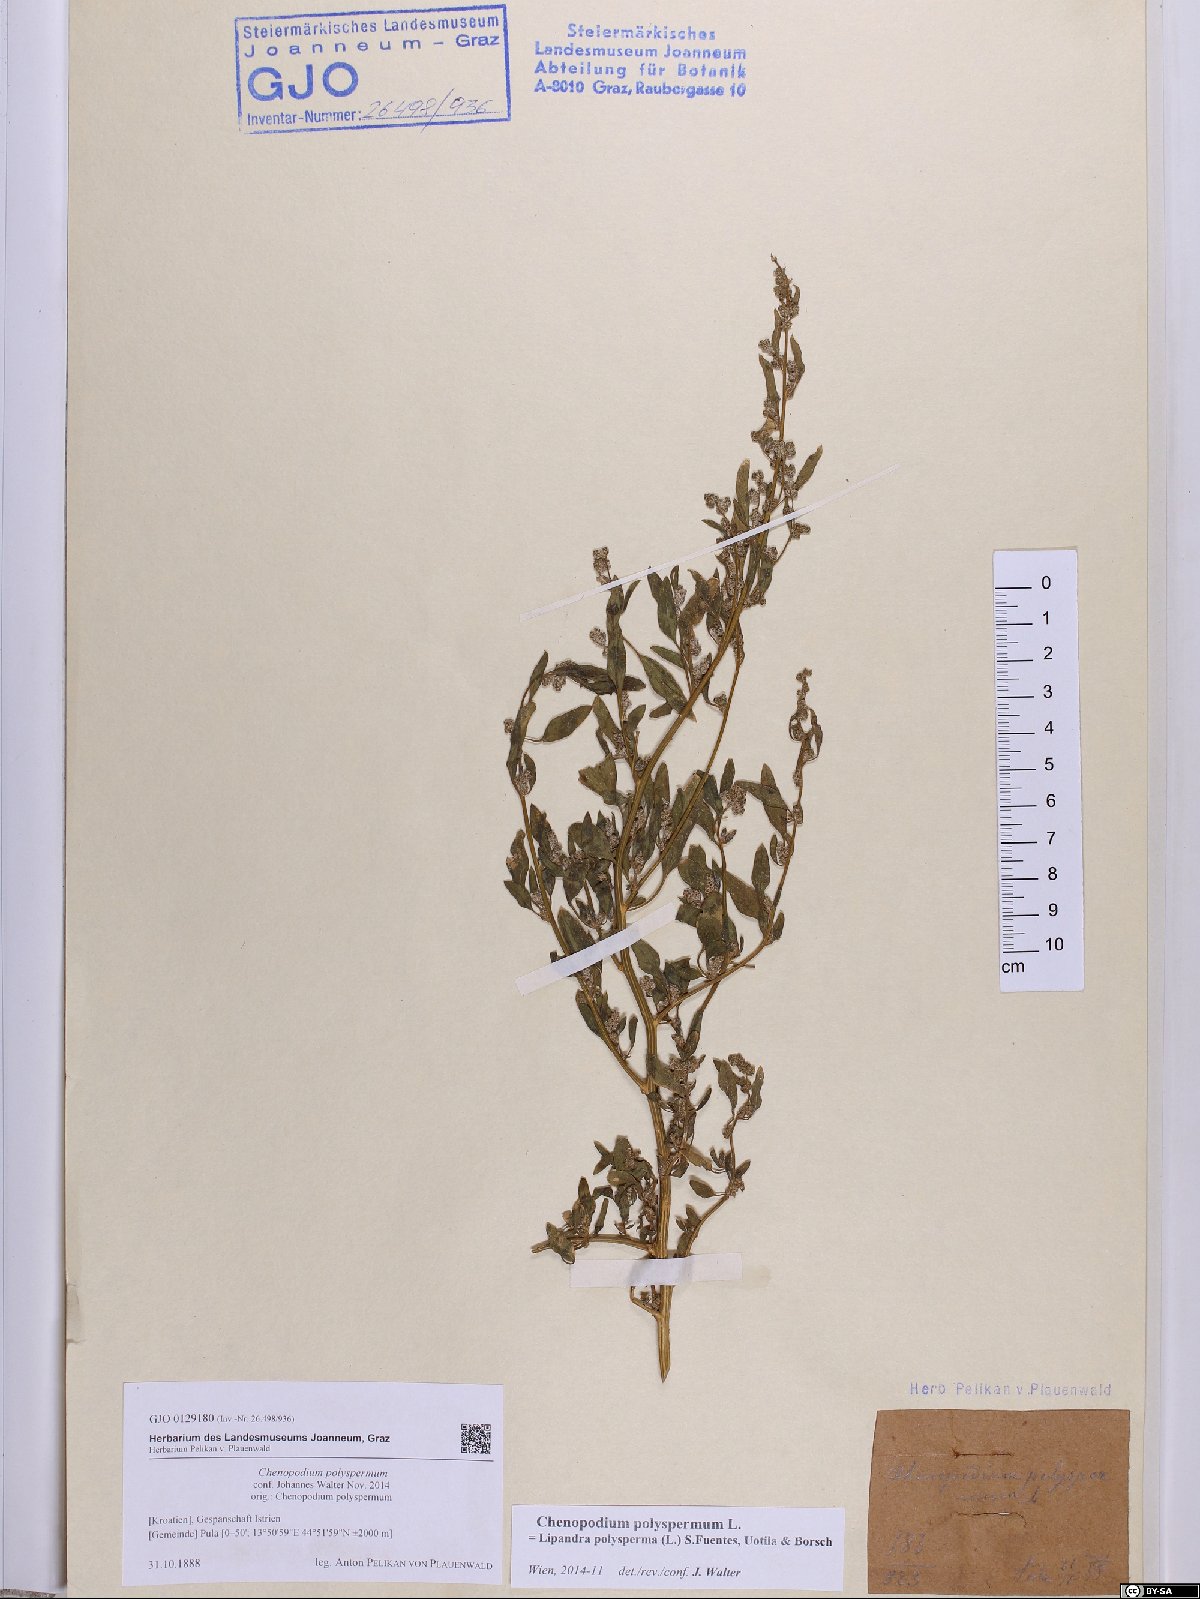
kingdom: Plantae
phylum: Tracheophyta
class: Magnoliopsida
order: Caryophyllales
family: Amaranthaceae
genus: Lipandra
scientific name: Lipandra polysperma
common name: Many-seed goosefoot
